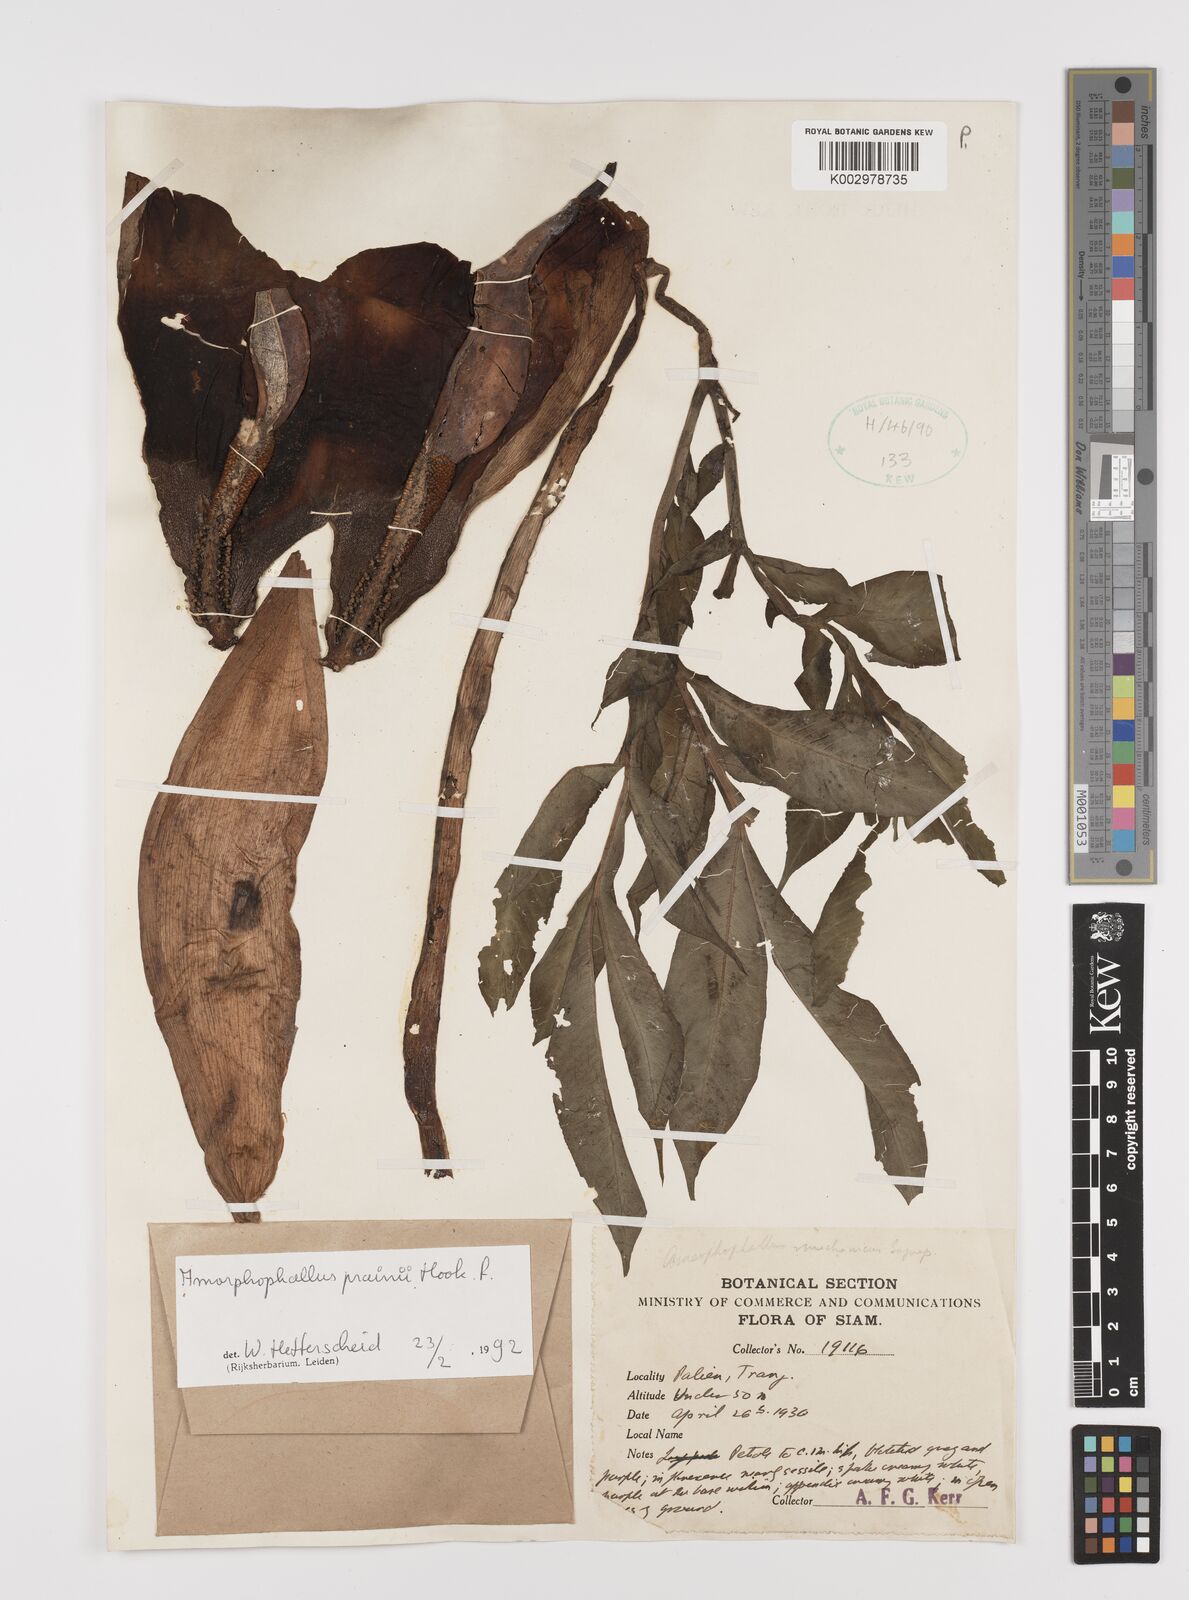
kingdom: Plantae
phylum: Tracheophyta
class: Liliopsida
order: Alismatales
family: Araceae
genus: Amorphophallus
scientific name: Amorphophallus prainii
